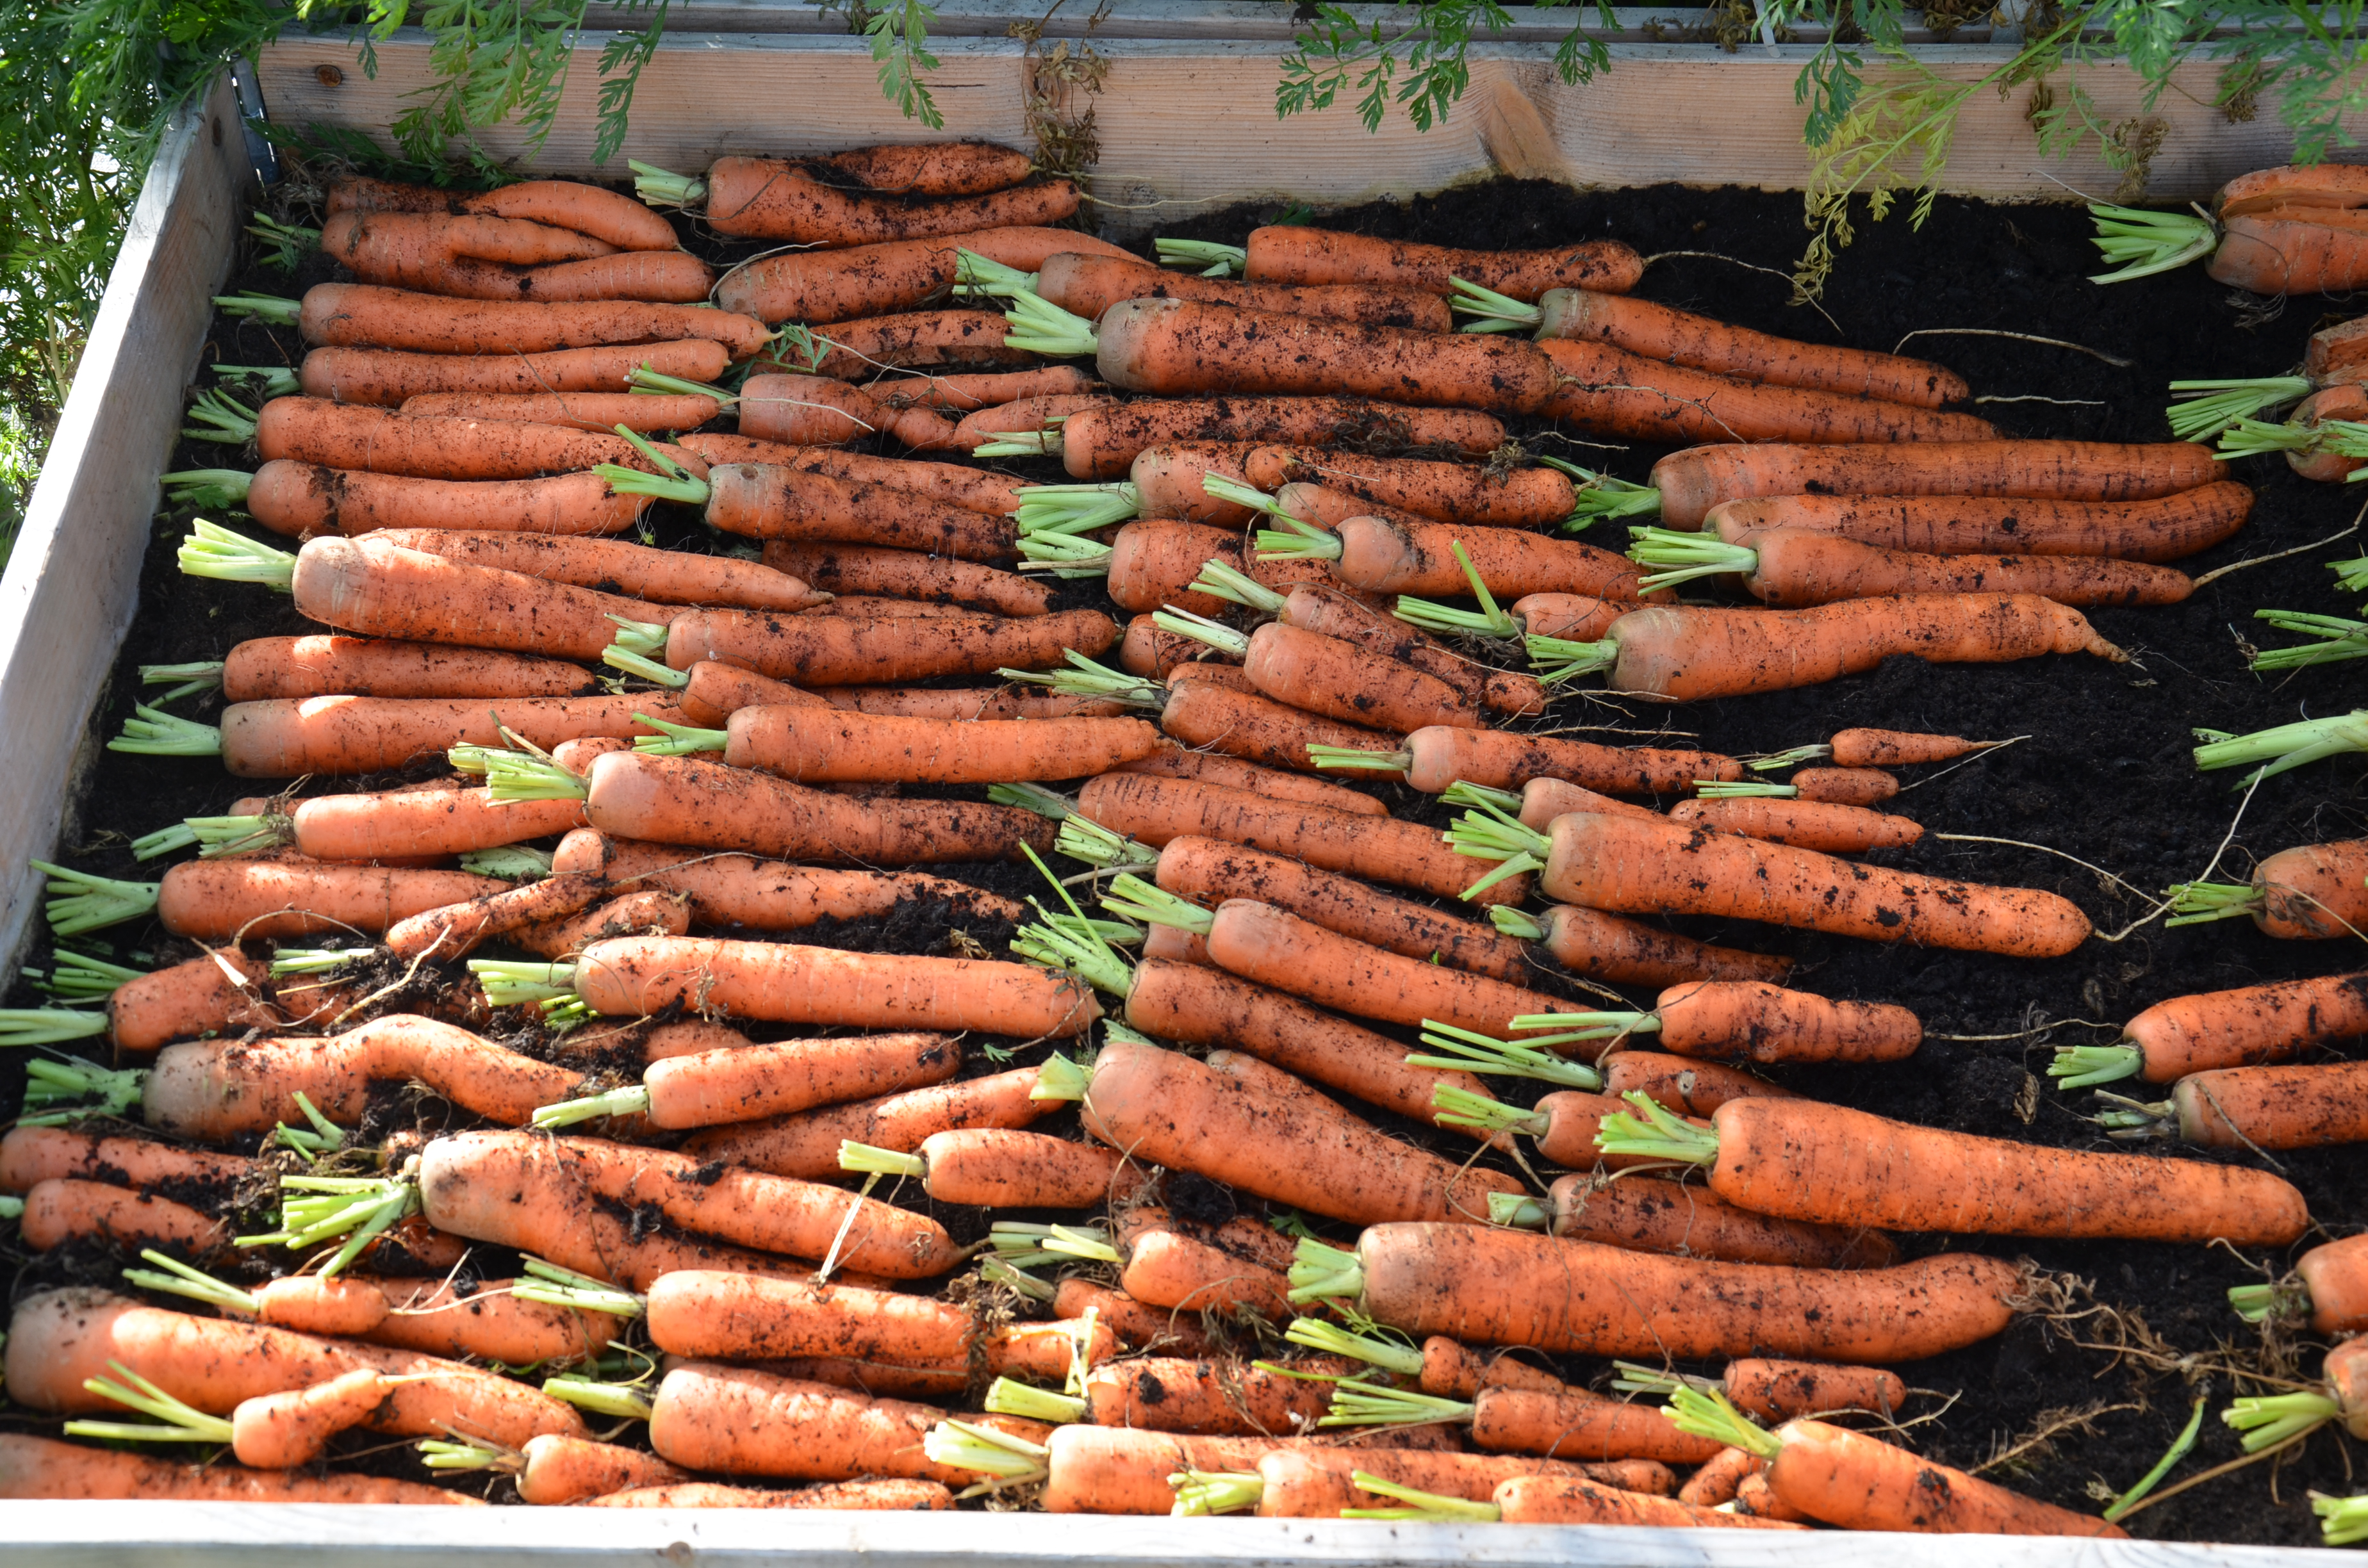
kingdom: Plantae
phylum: Tracheophyta
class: Magnoliopsida
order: Apiales
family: Apiaceae
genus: Daucus
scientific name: Daucus carota
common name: Wild carrot
